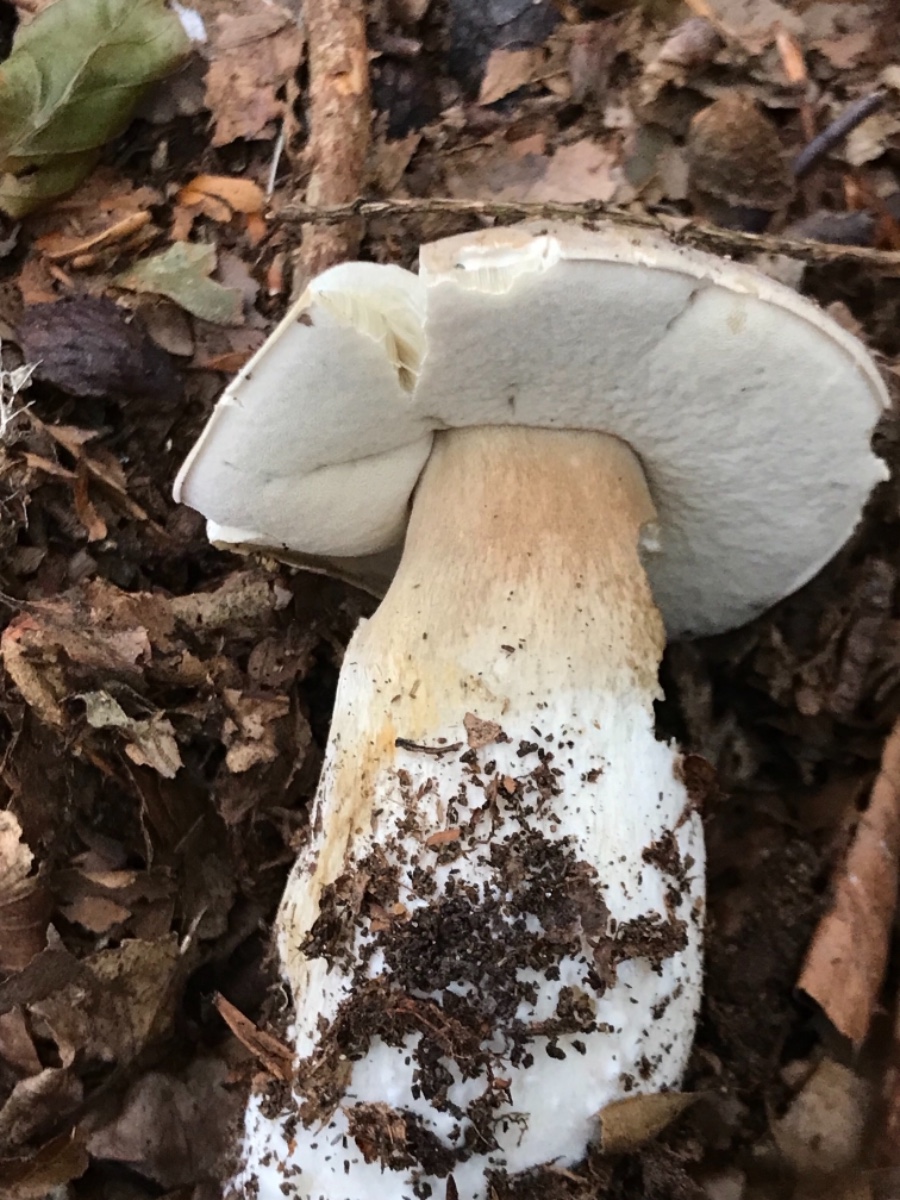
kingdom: Fungi
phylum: Basidiomycota
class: Agaricomycetes
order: Boletales
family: Boletaceae
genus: Boletus
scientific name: Boletus edulis
